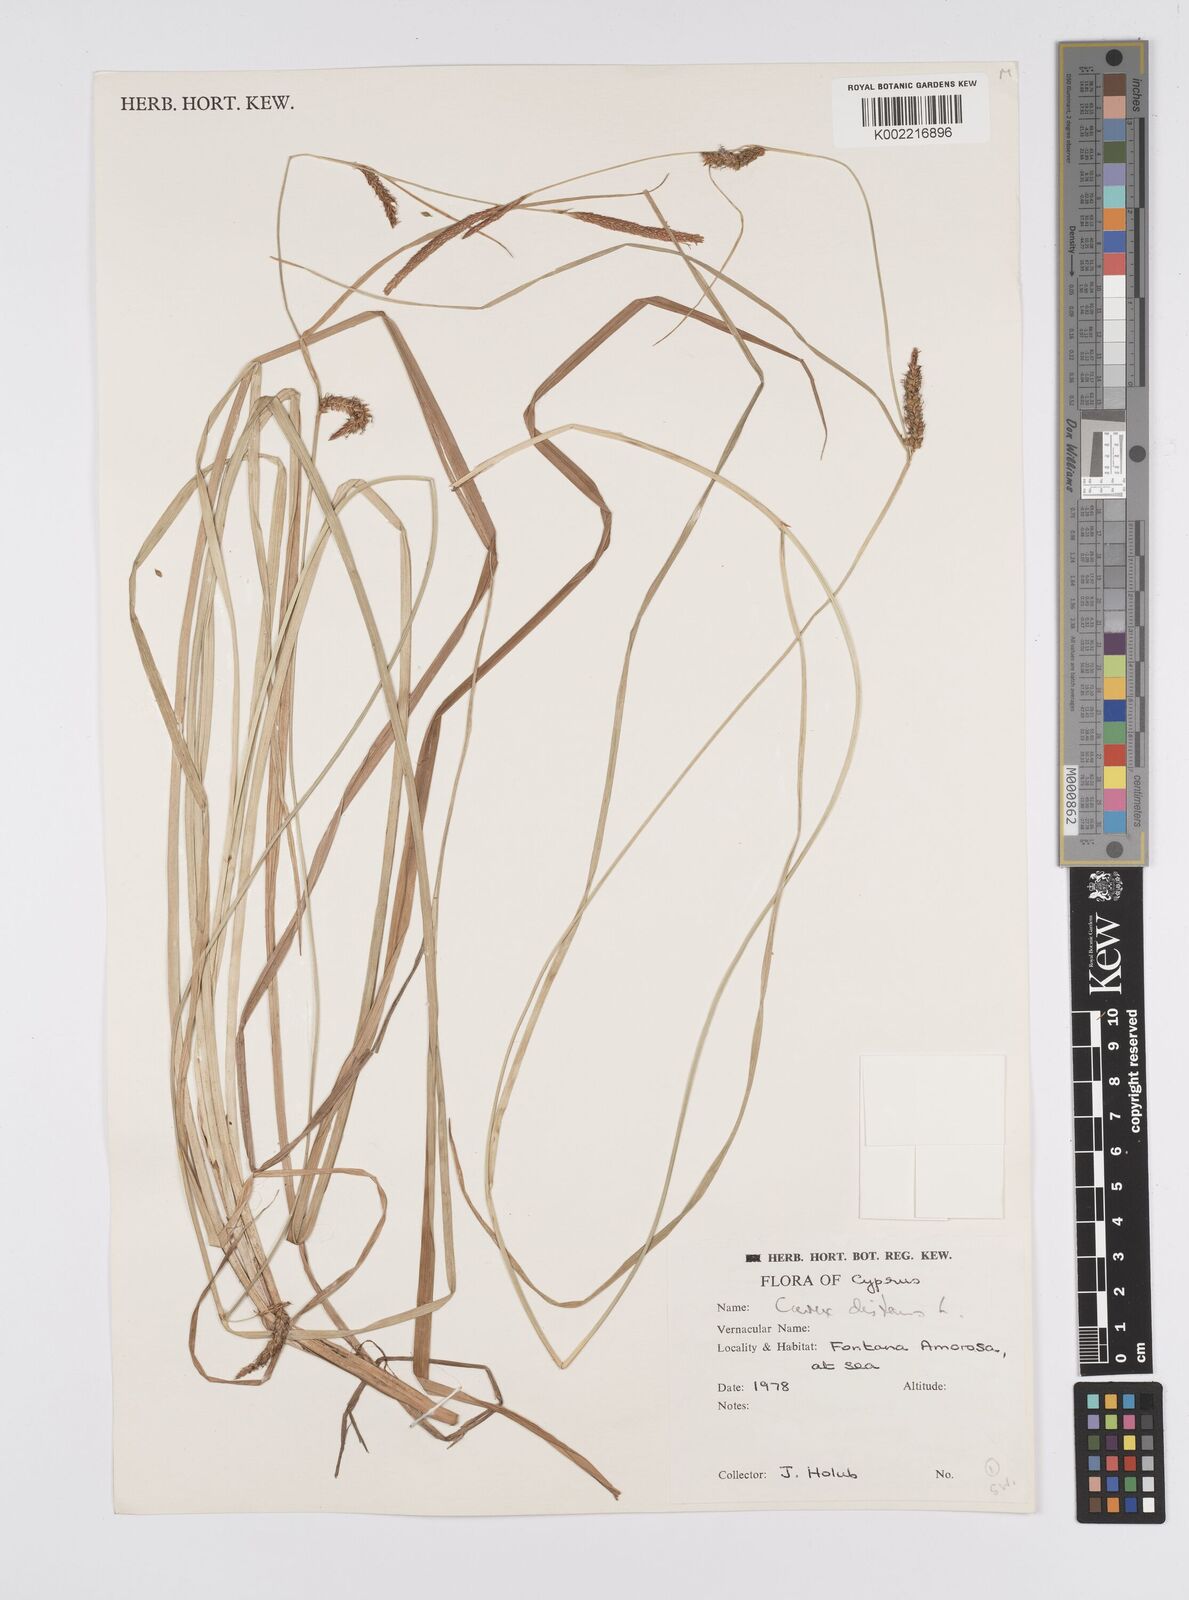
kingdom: Plantae
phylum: Tracheophyta
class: Liliopsida
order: Poales
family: Cyperaceae
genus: Carex
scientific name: Carex distans
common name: Distant sedge
